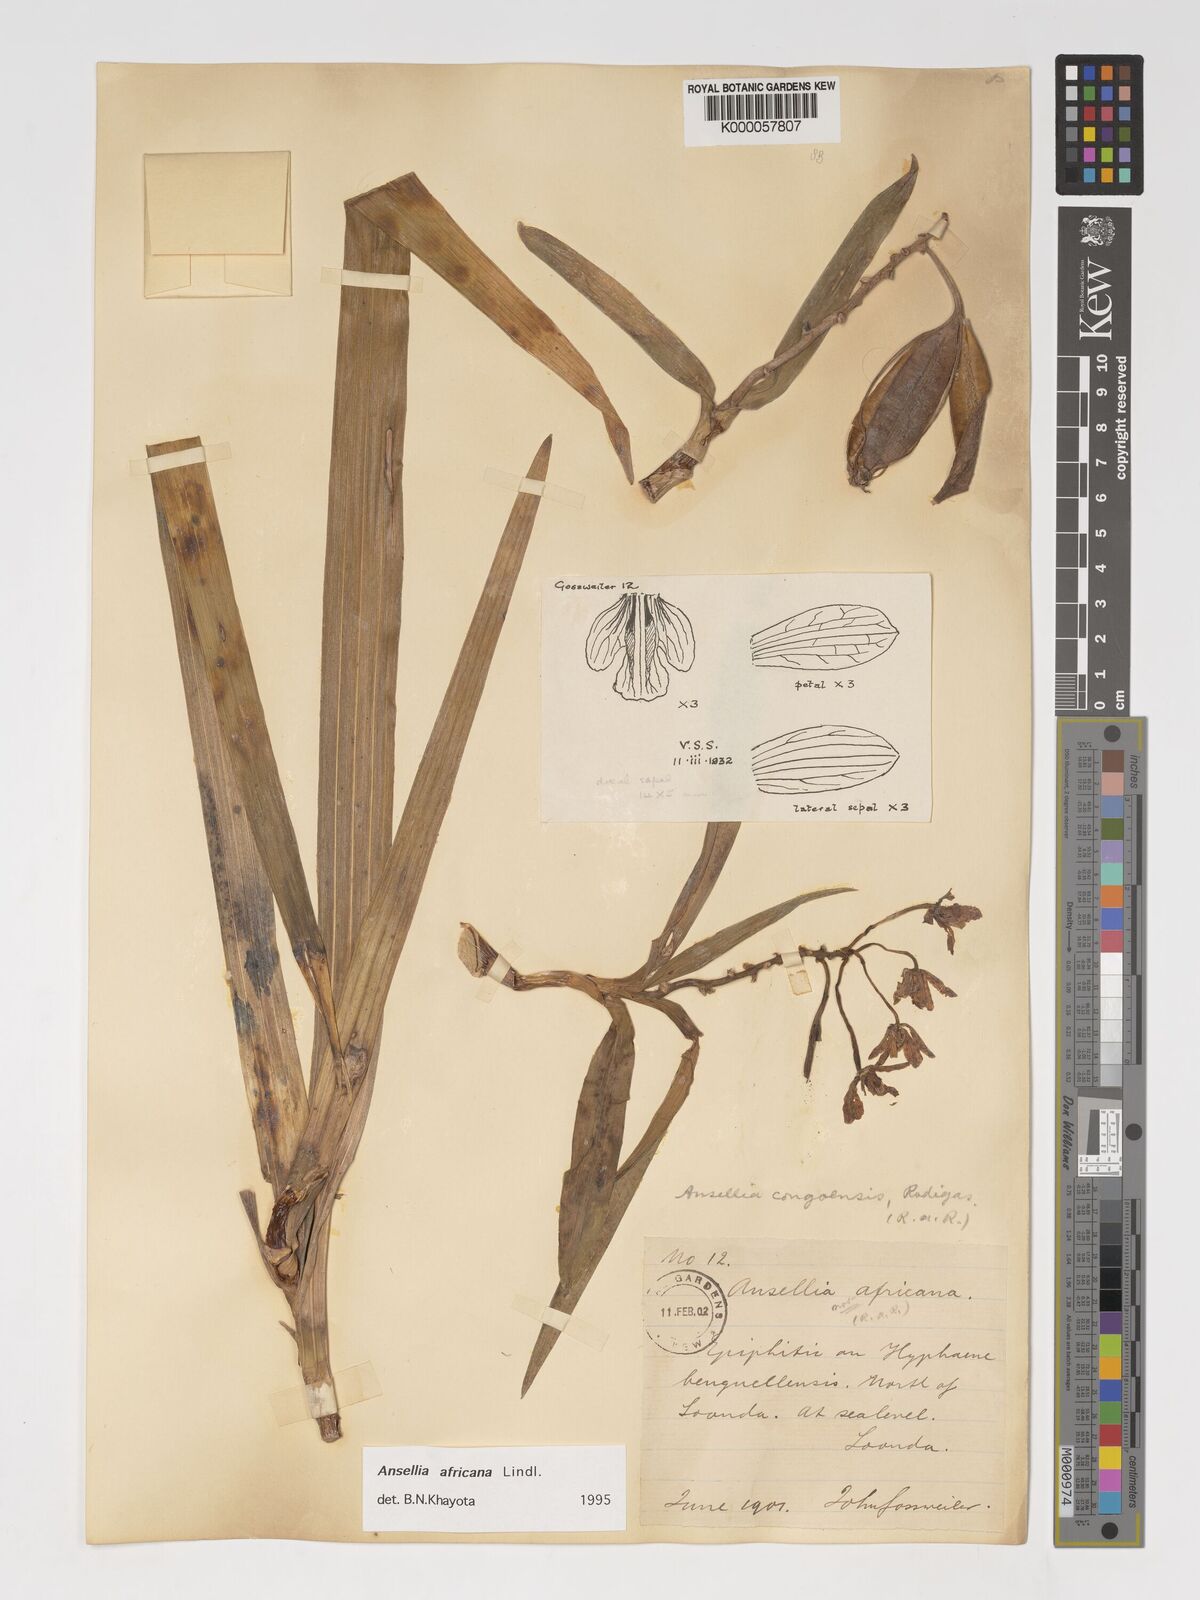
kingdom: Plantae
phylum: Tracheophyta
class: Liliopsida
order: Asparagales
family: Orchidaceae
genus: Ansellia
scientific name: Ansellia africana
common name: African ansellia
